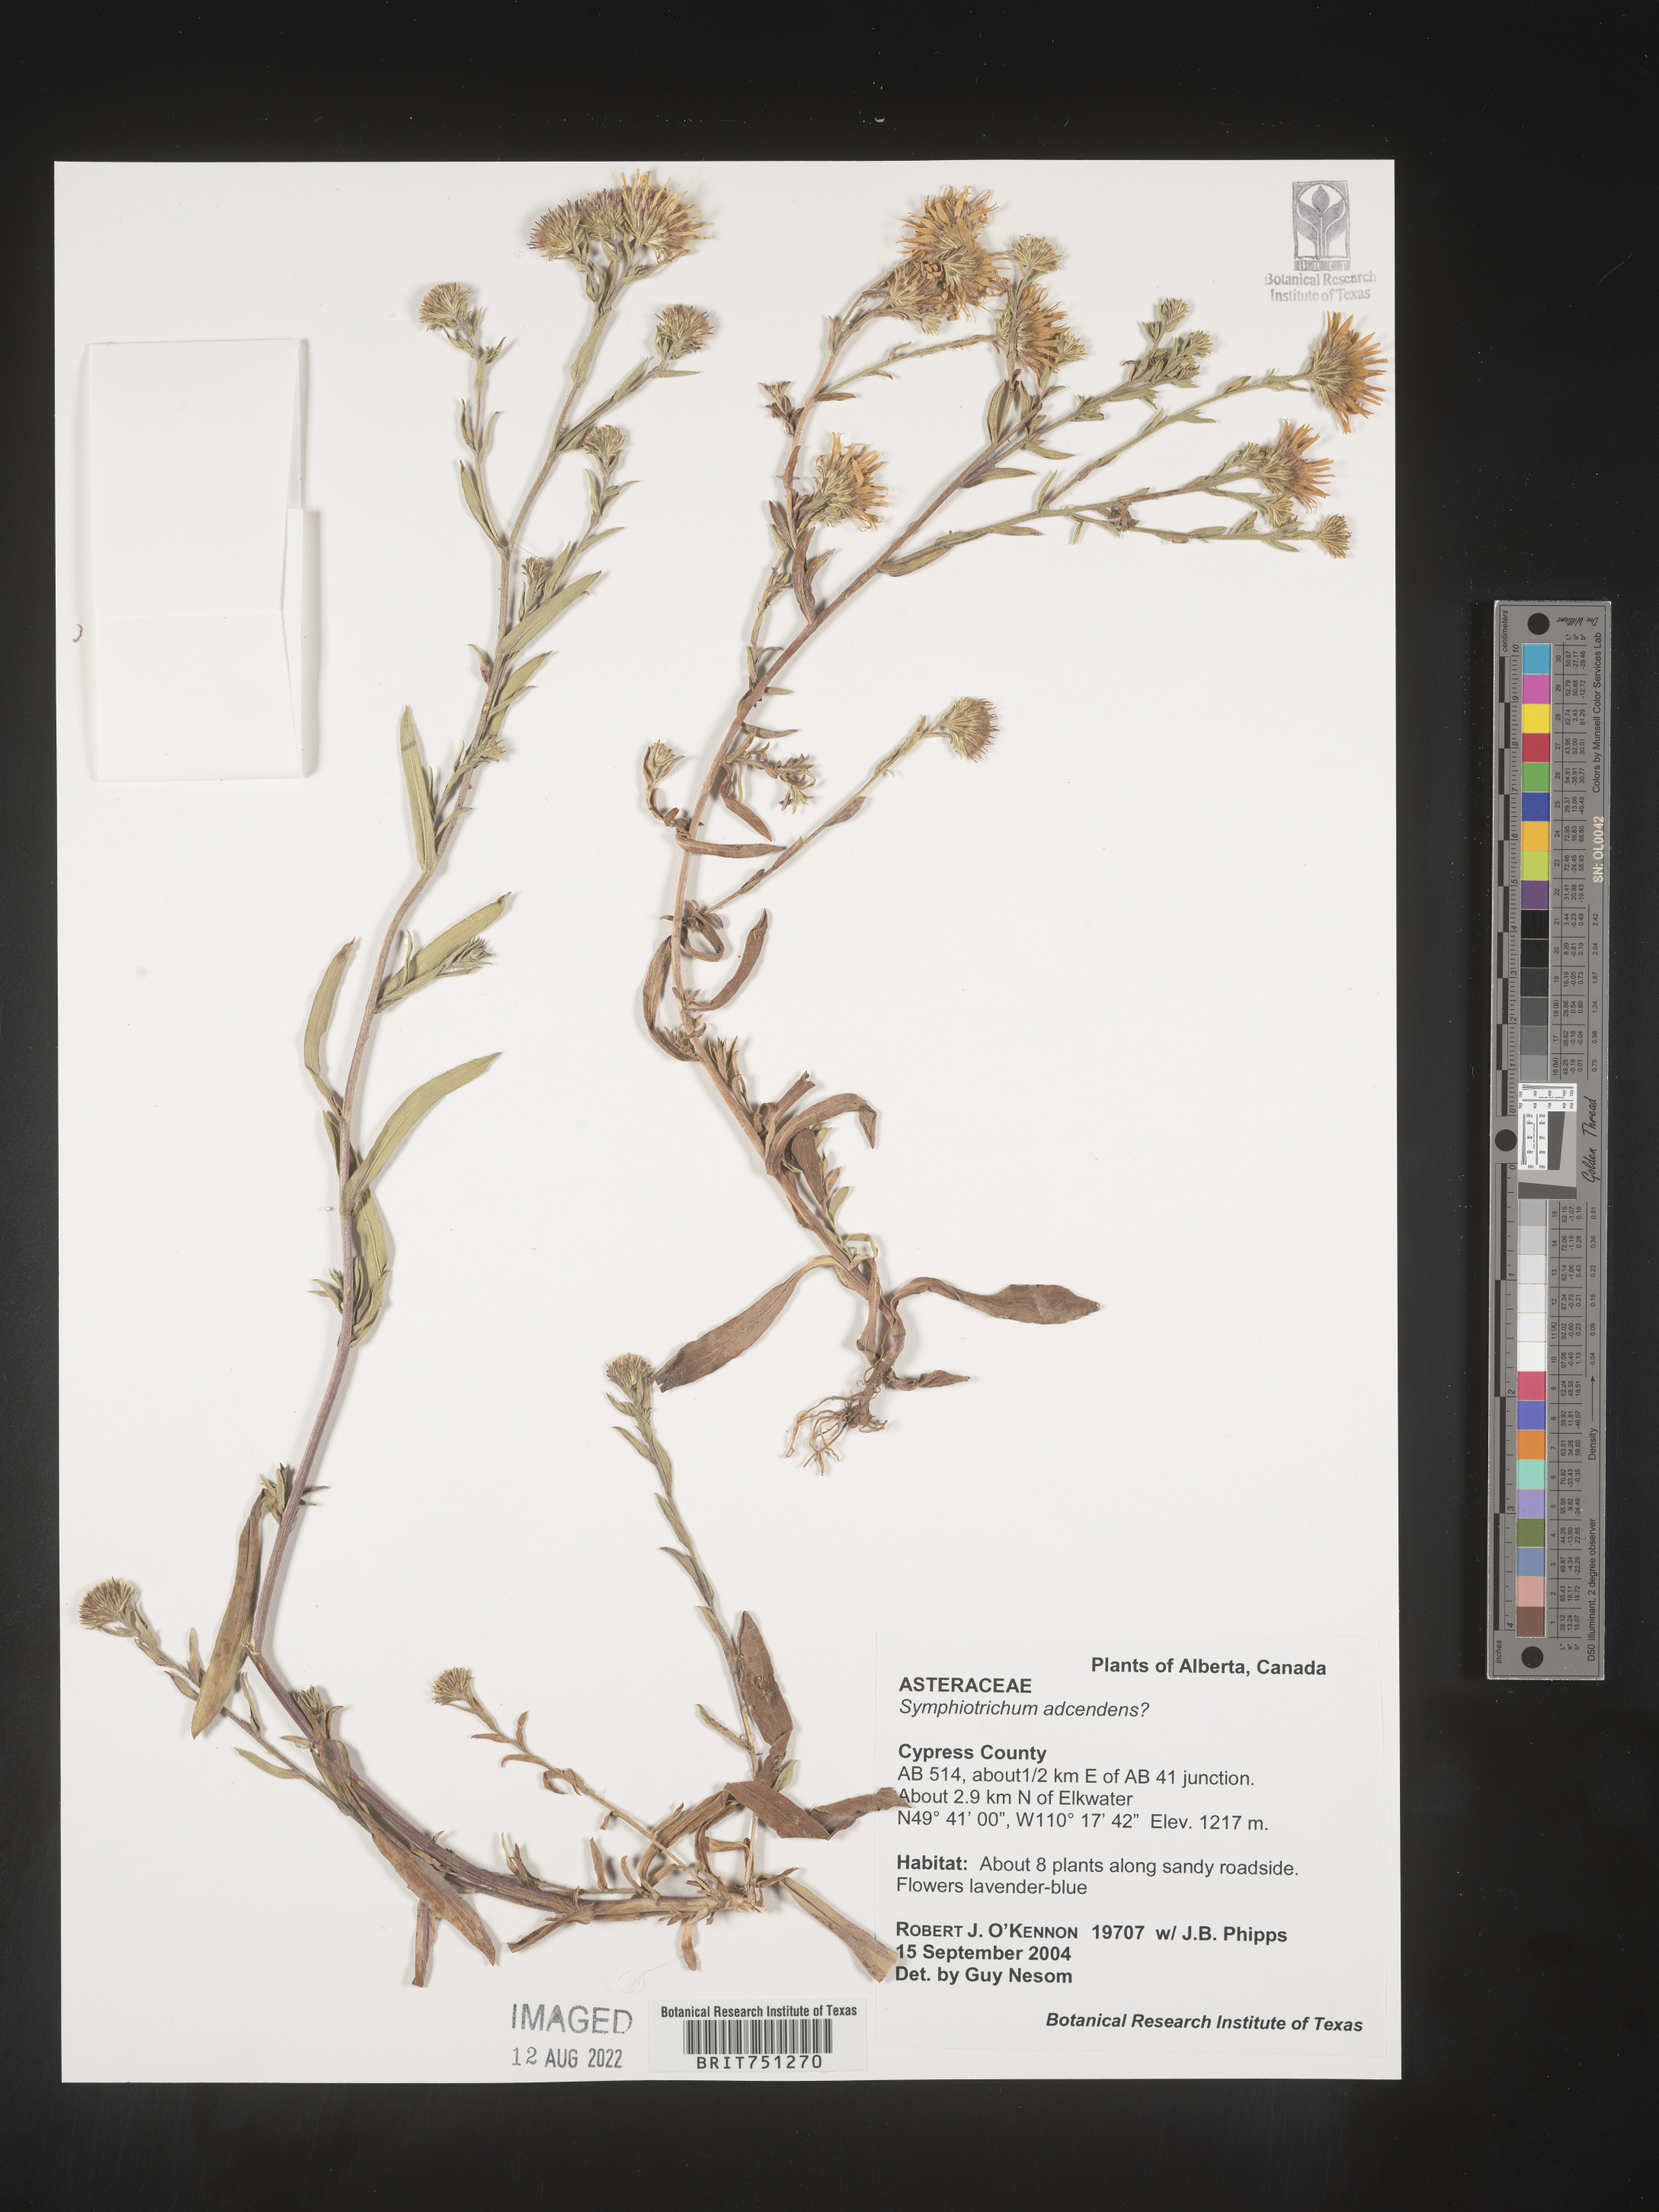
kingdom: Plantae
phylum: Tracheophyta
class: Magnoliopsida
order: Asterales
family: Asteraceae
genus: Symphyotrichum
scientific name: Symphyotrichum ascendens
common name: Intermountain aster
